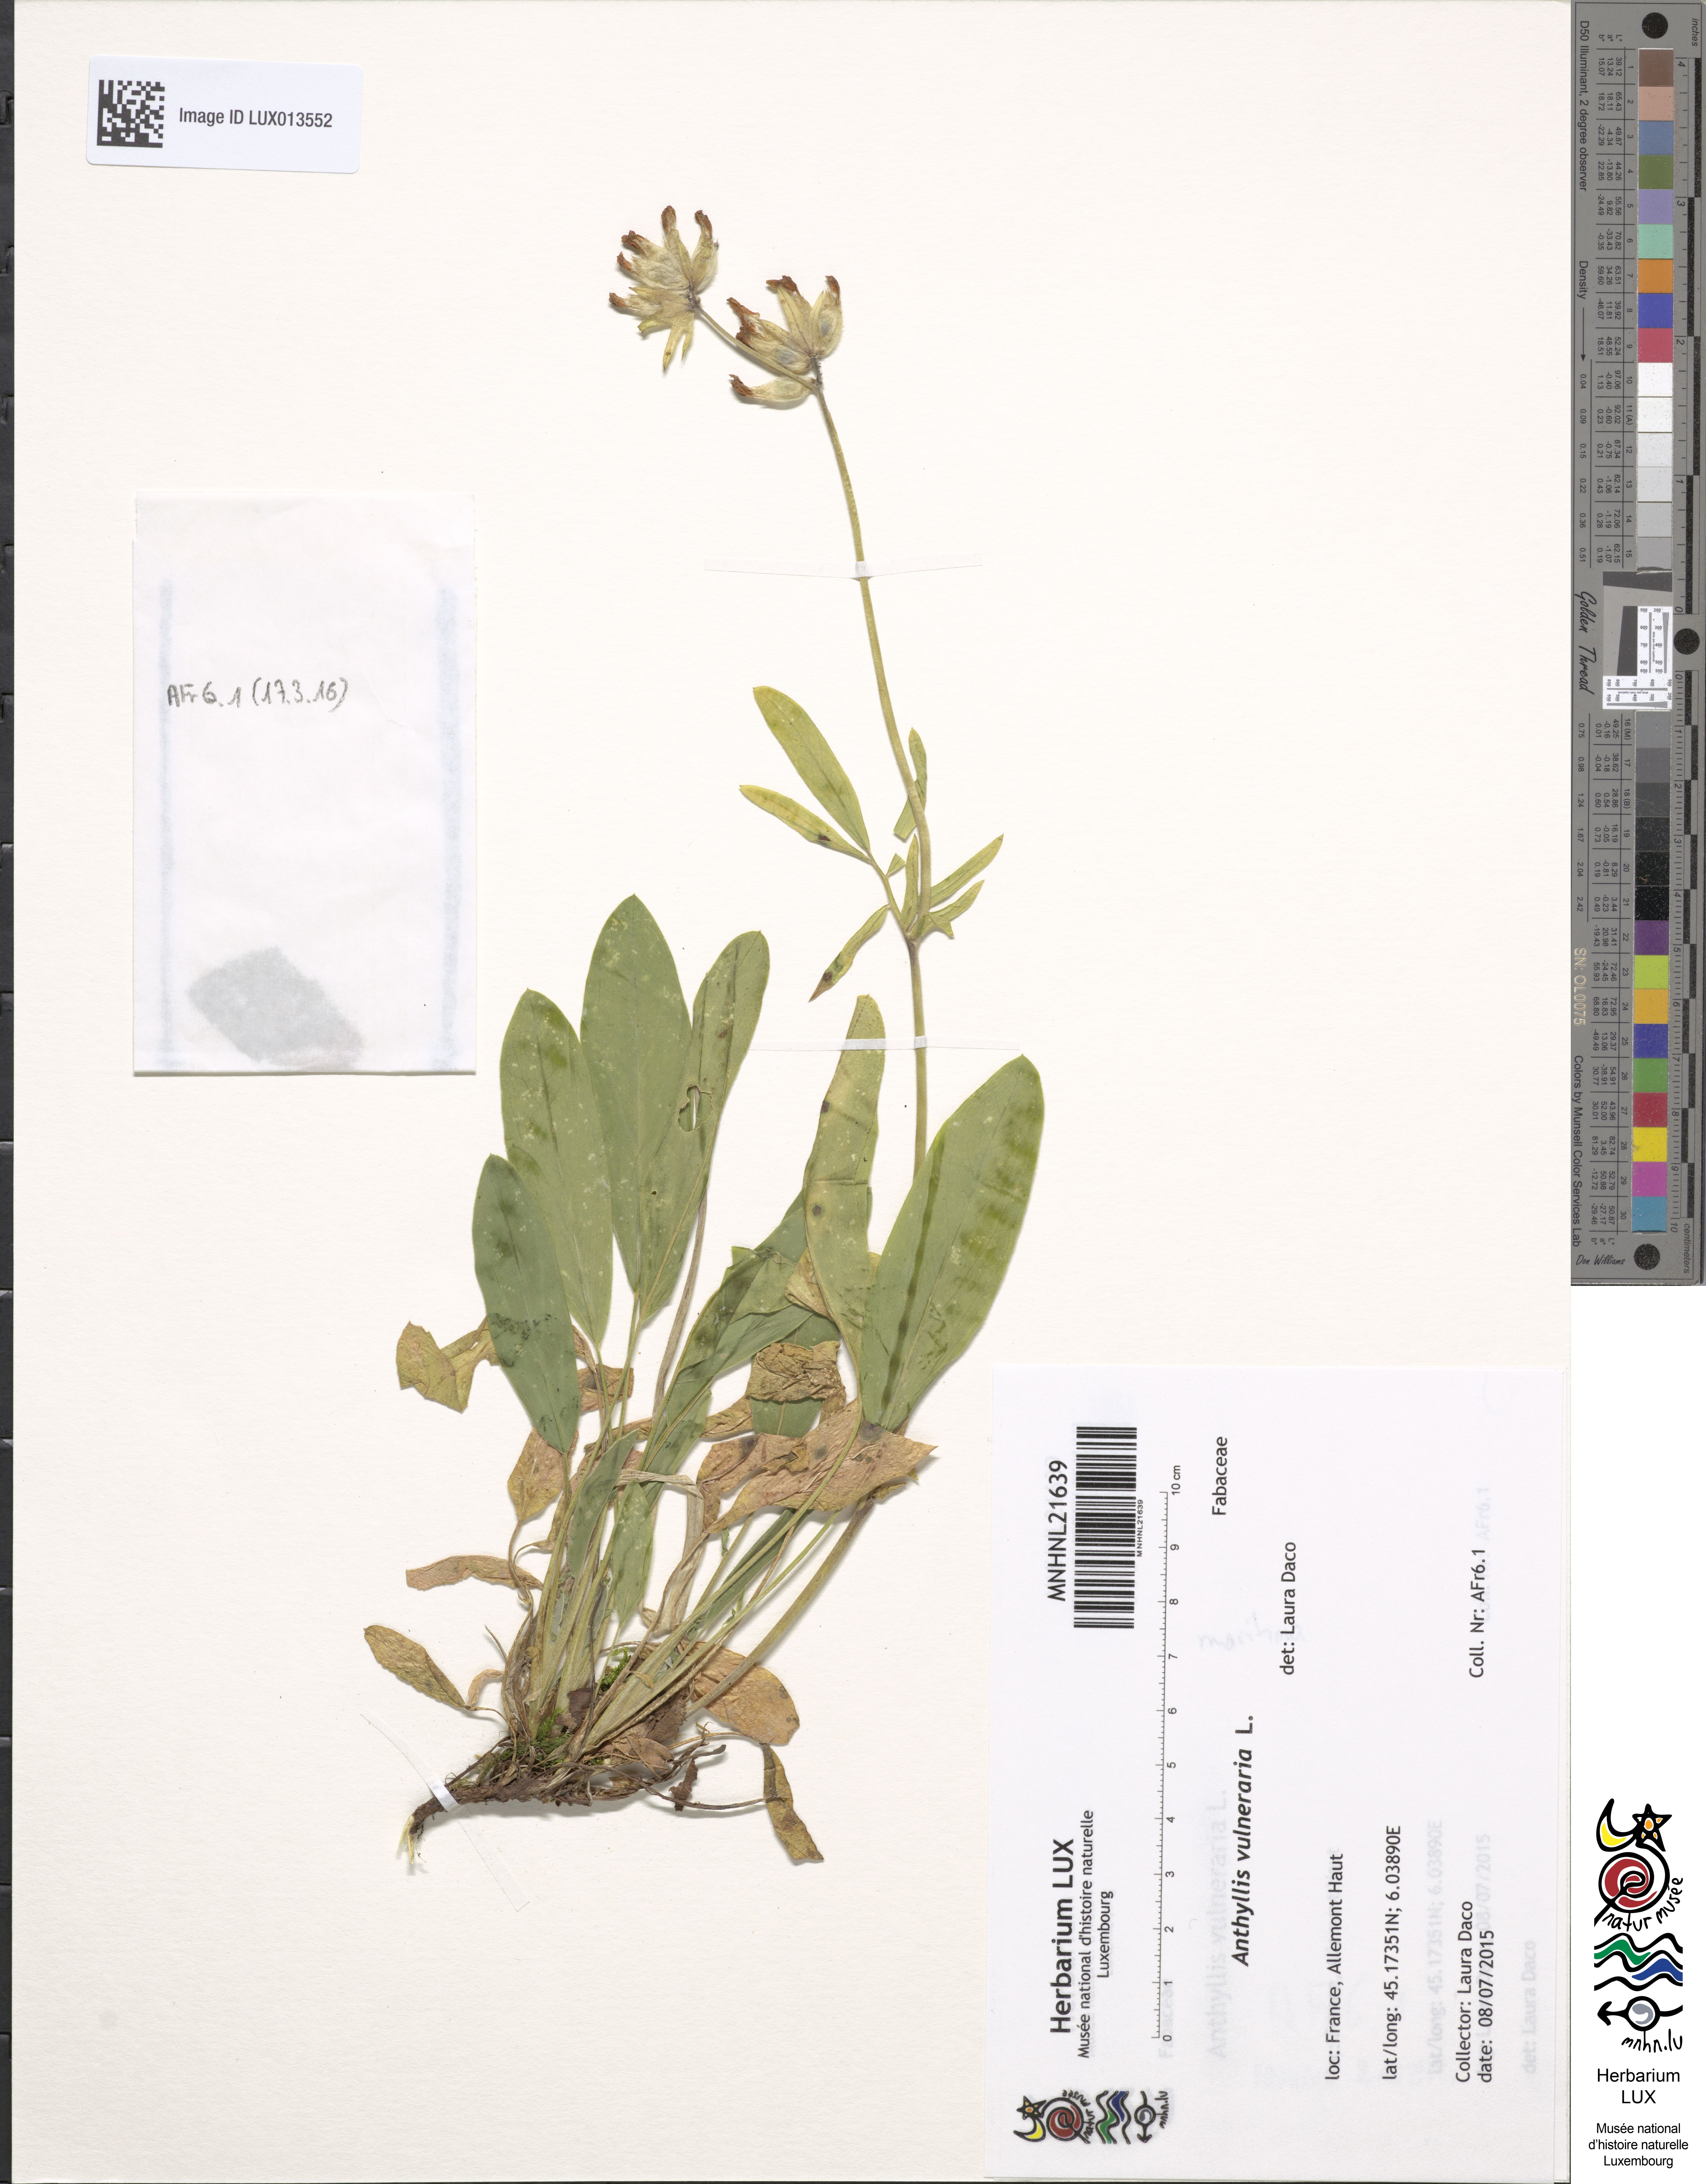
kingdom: Plantae
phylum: Tracheophyta
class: Magnoliopsida
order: Fabales
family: Fabaceae
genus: Anthyllis
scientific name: Anthyllis vulneraria
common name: Kidney vetch
